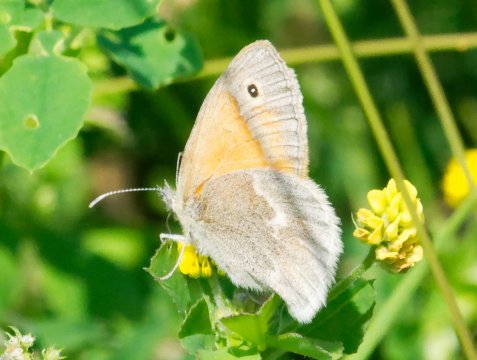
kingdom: Animalia
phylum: Arthropoda
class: Insecta
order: Lepidoptera
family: Nymphalidae
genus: Coenonympha
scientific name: Coenonympha california
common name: California Ringlet
